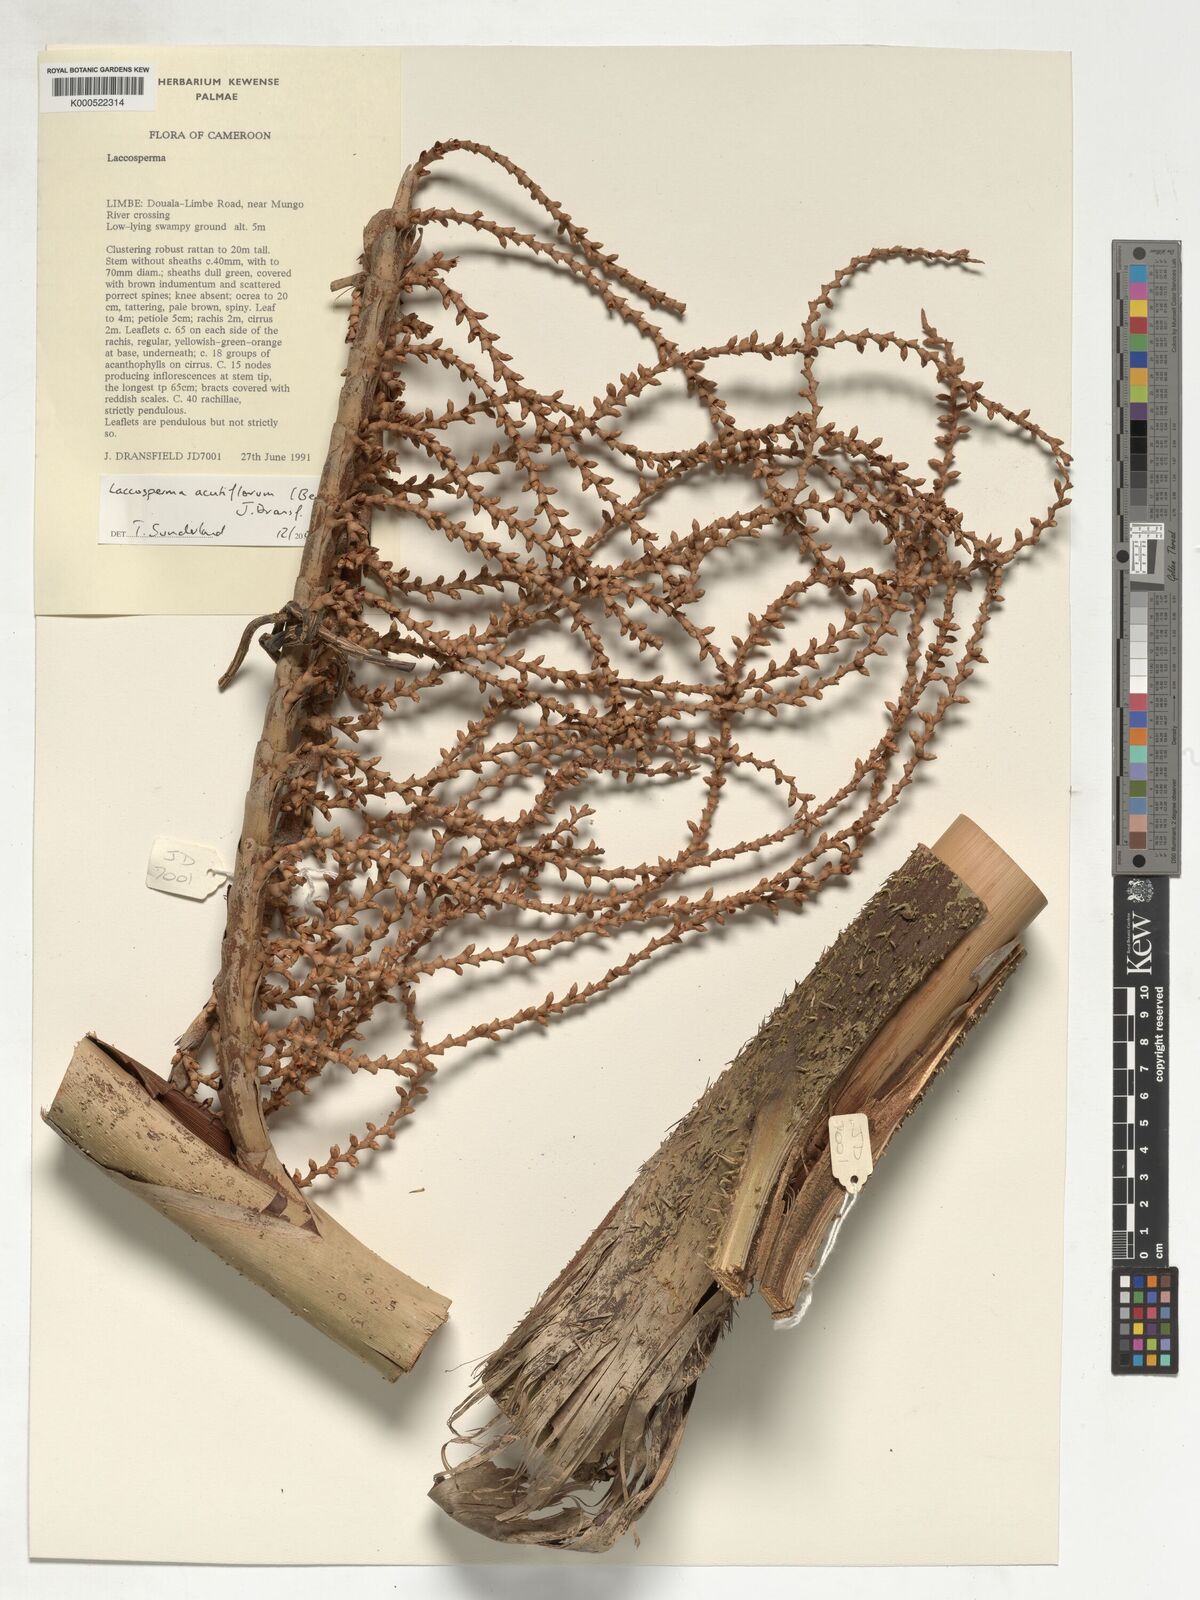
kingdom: Plantae
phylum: Tracheophyta
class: Liliopsida
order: Arecales
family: Arecaceae
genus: Laccosperma
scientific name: Laccosperma acutiflorum
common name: Rattan
